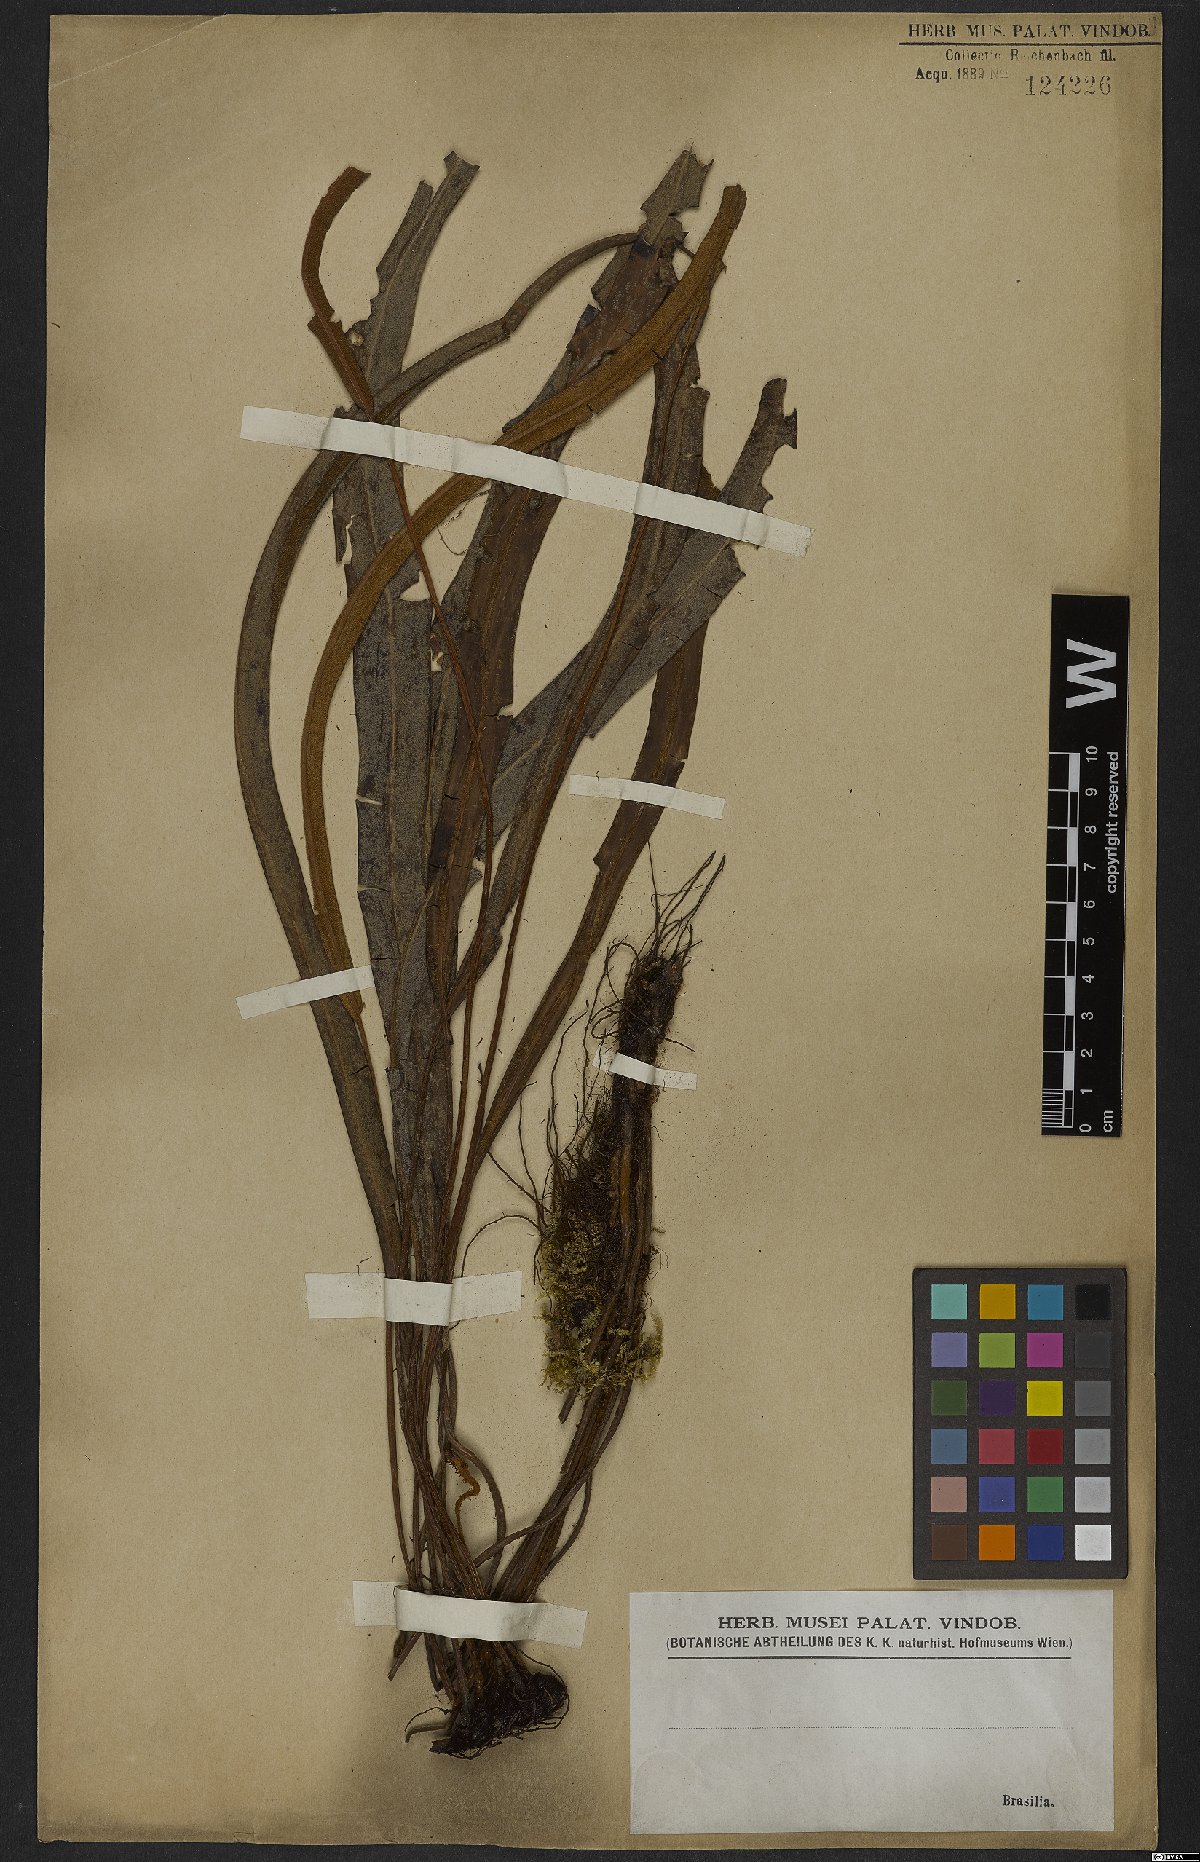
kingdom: Plantae
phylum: Tracheophyta
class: Polypodiopsida
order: Polypodiales
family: Dryopteridaceae
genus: Elaphoglossum
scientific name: Elaphoglossum
